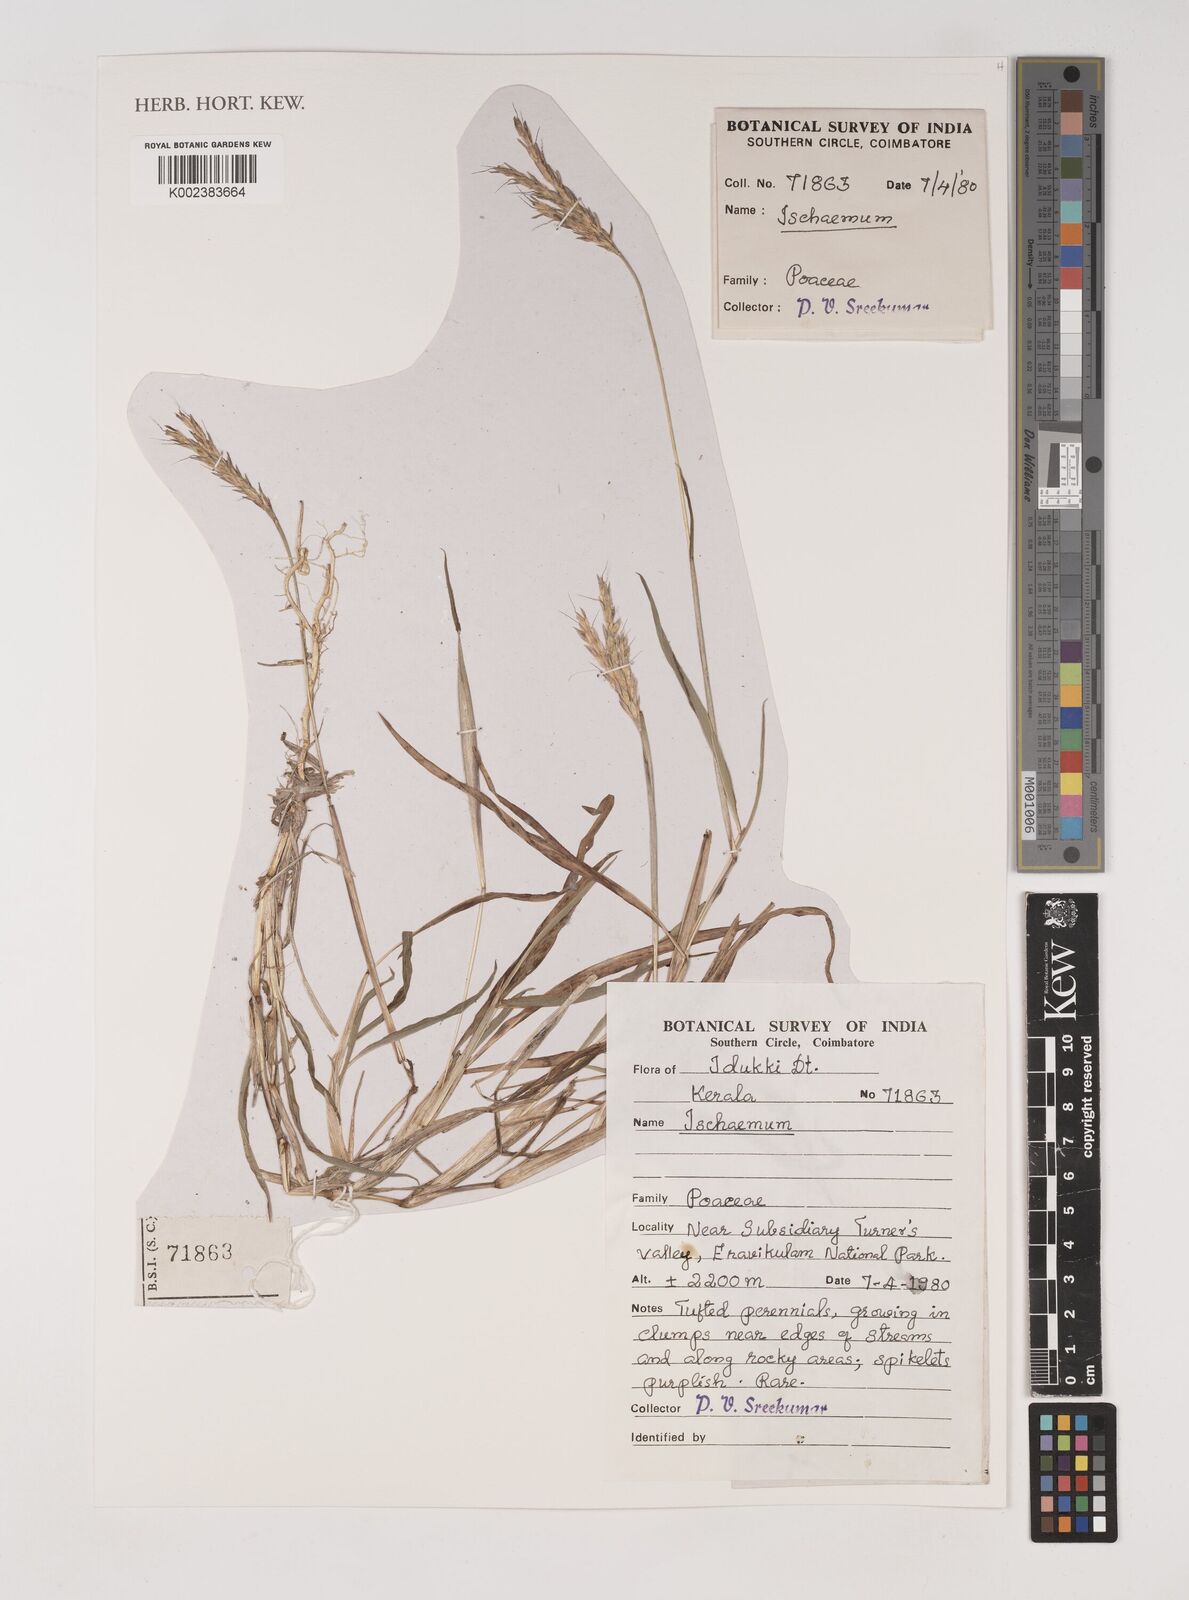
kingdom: Plantae
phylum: Tracheophyta
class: Liliopsida
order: Poales
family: Poaceae
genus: Ischaemum
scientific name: Ischaemum
